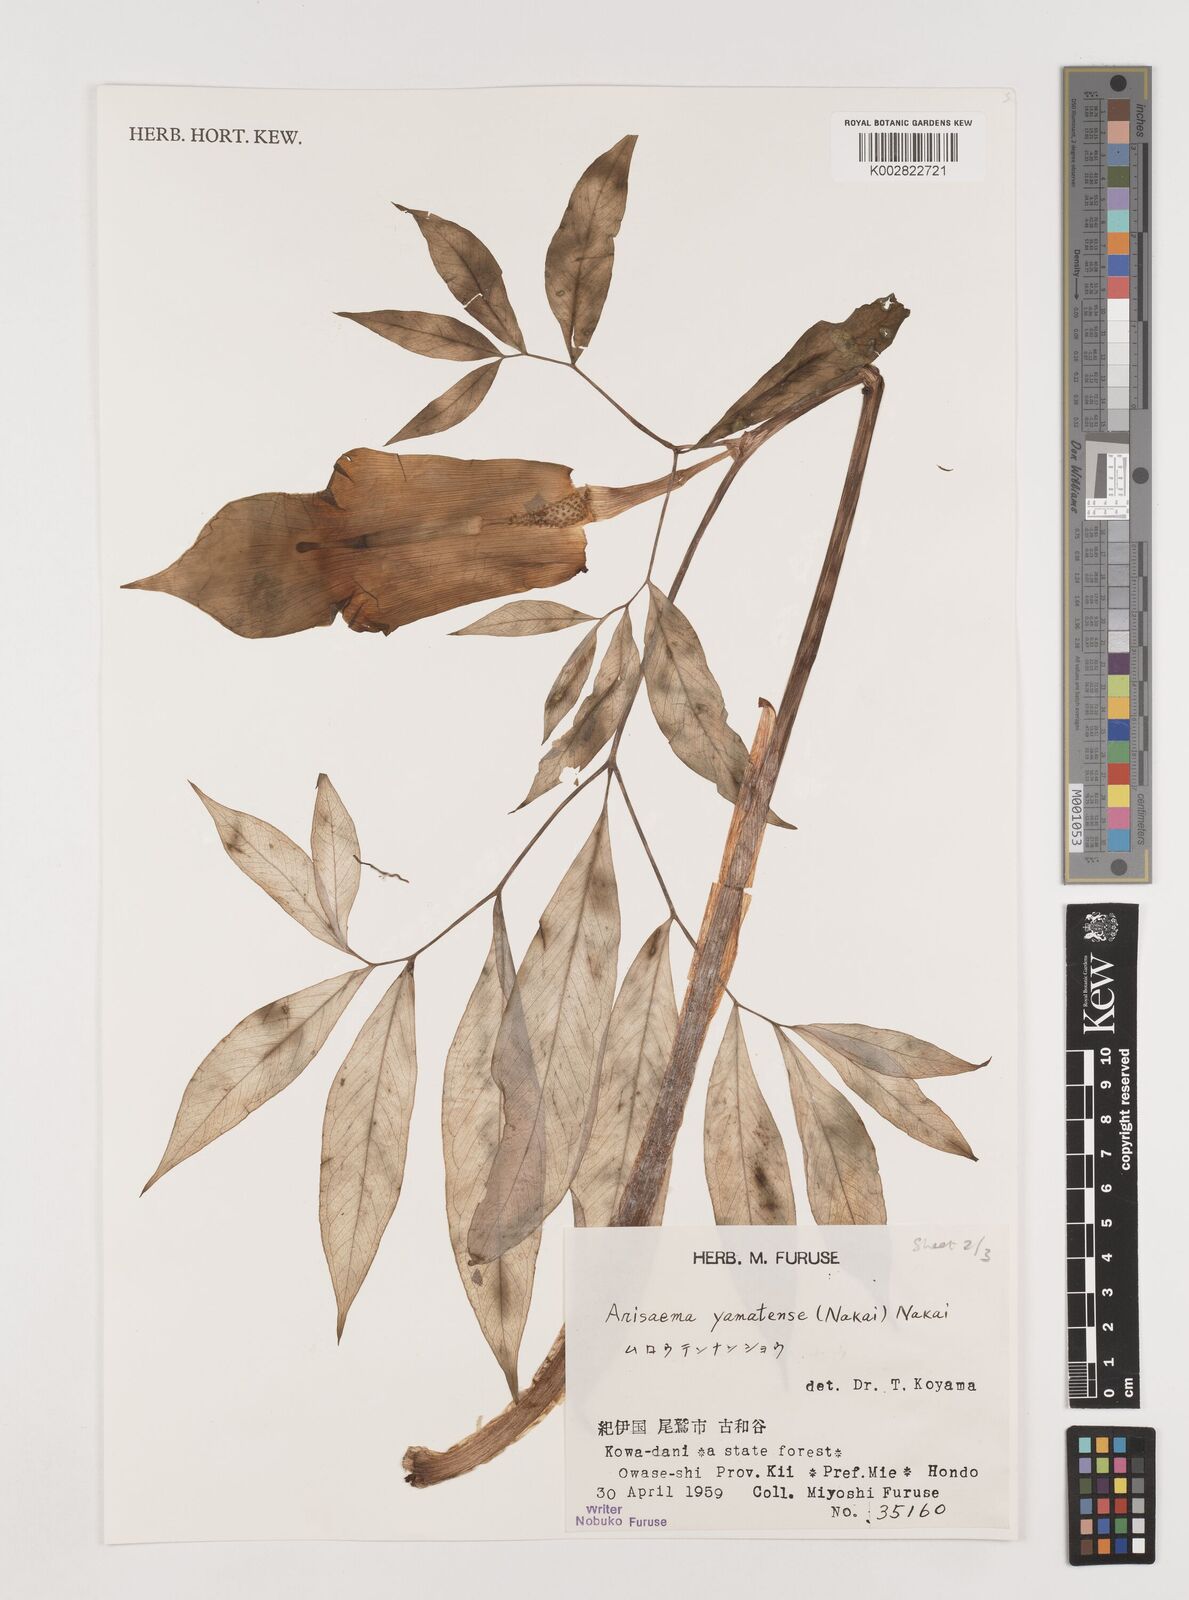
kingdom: Plantae
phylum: Tracheophyta
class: Liliopsida
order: Alismatales
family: Araceae
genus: Arisaema
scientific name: Arisaema yamatense
